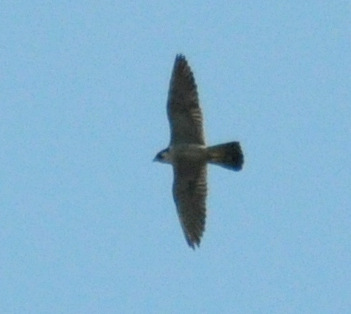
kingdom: Animalia
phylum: Chordata
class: Aves
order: Falconiformes
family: Falconidae
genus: Falco
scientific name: Falco peregrinus
